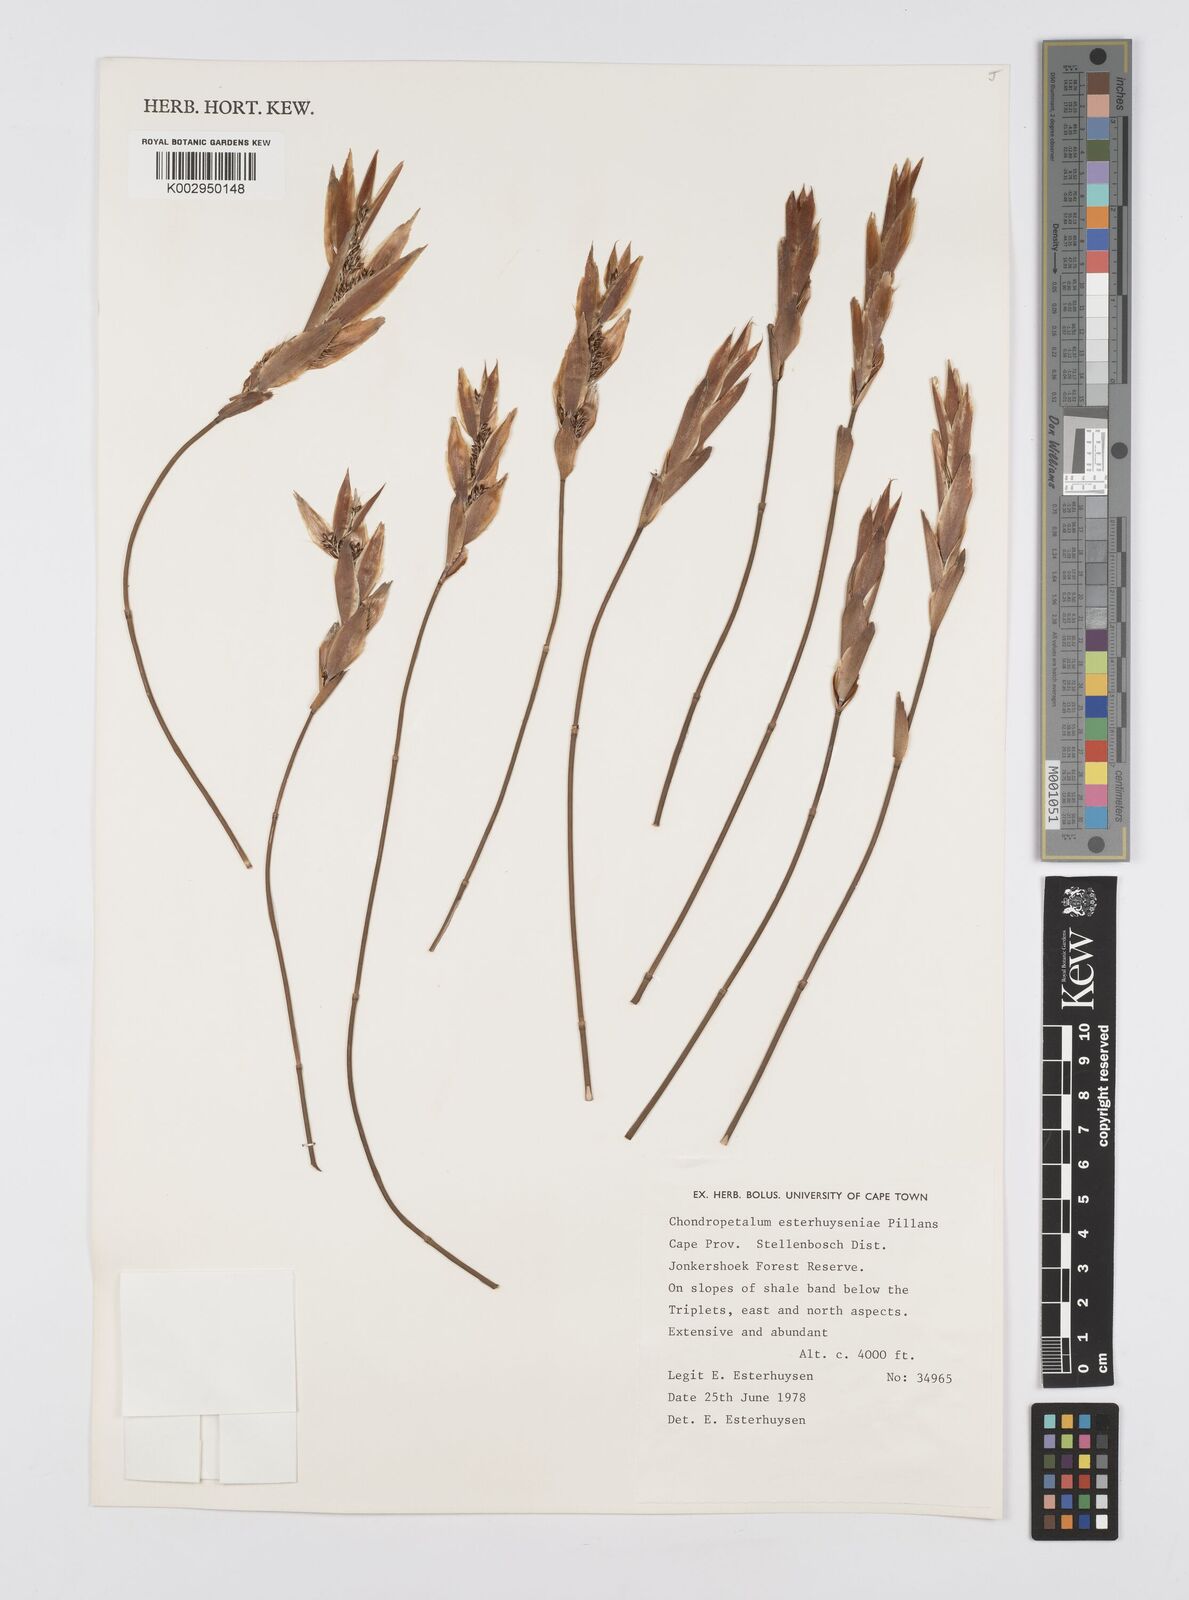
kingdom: Plantae
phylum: Tracheophyta
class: Liliopsida
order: Poales
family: Restionaceae
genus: Askidiosperma
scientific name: Askidiosperma esterhuyseniae
